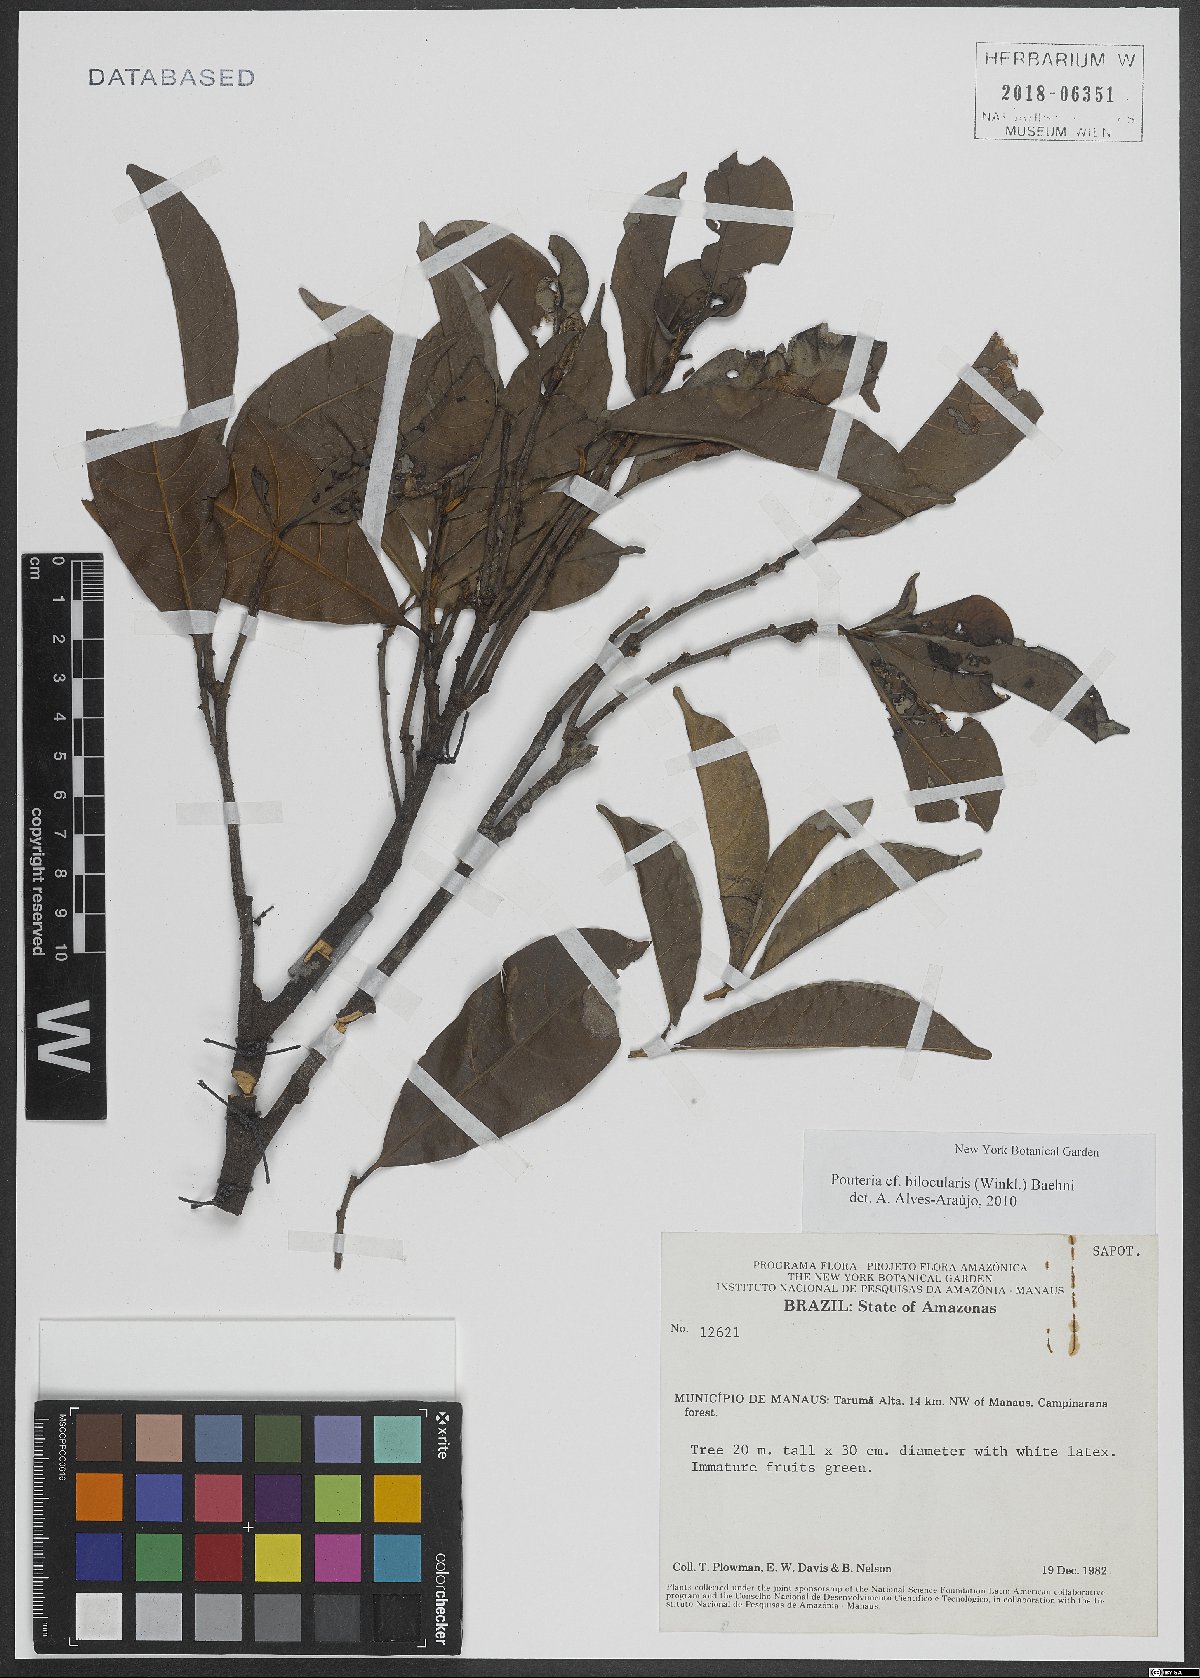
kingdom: Plantae
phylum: Tracheophyta
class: Magnoliopsida
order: Ericales
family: Sapotaceae
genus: Pouteria
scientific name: Pouteria bilocularis
